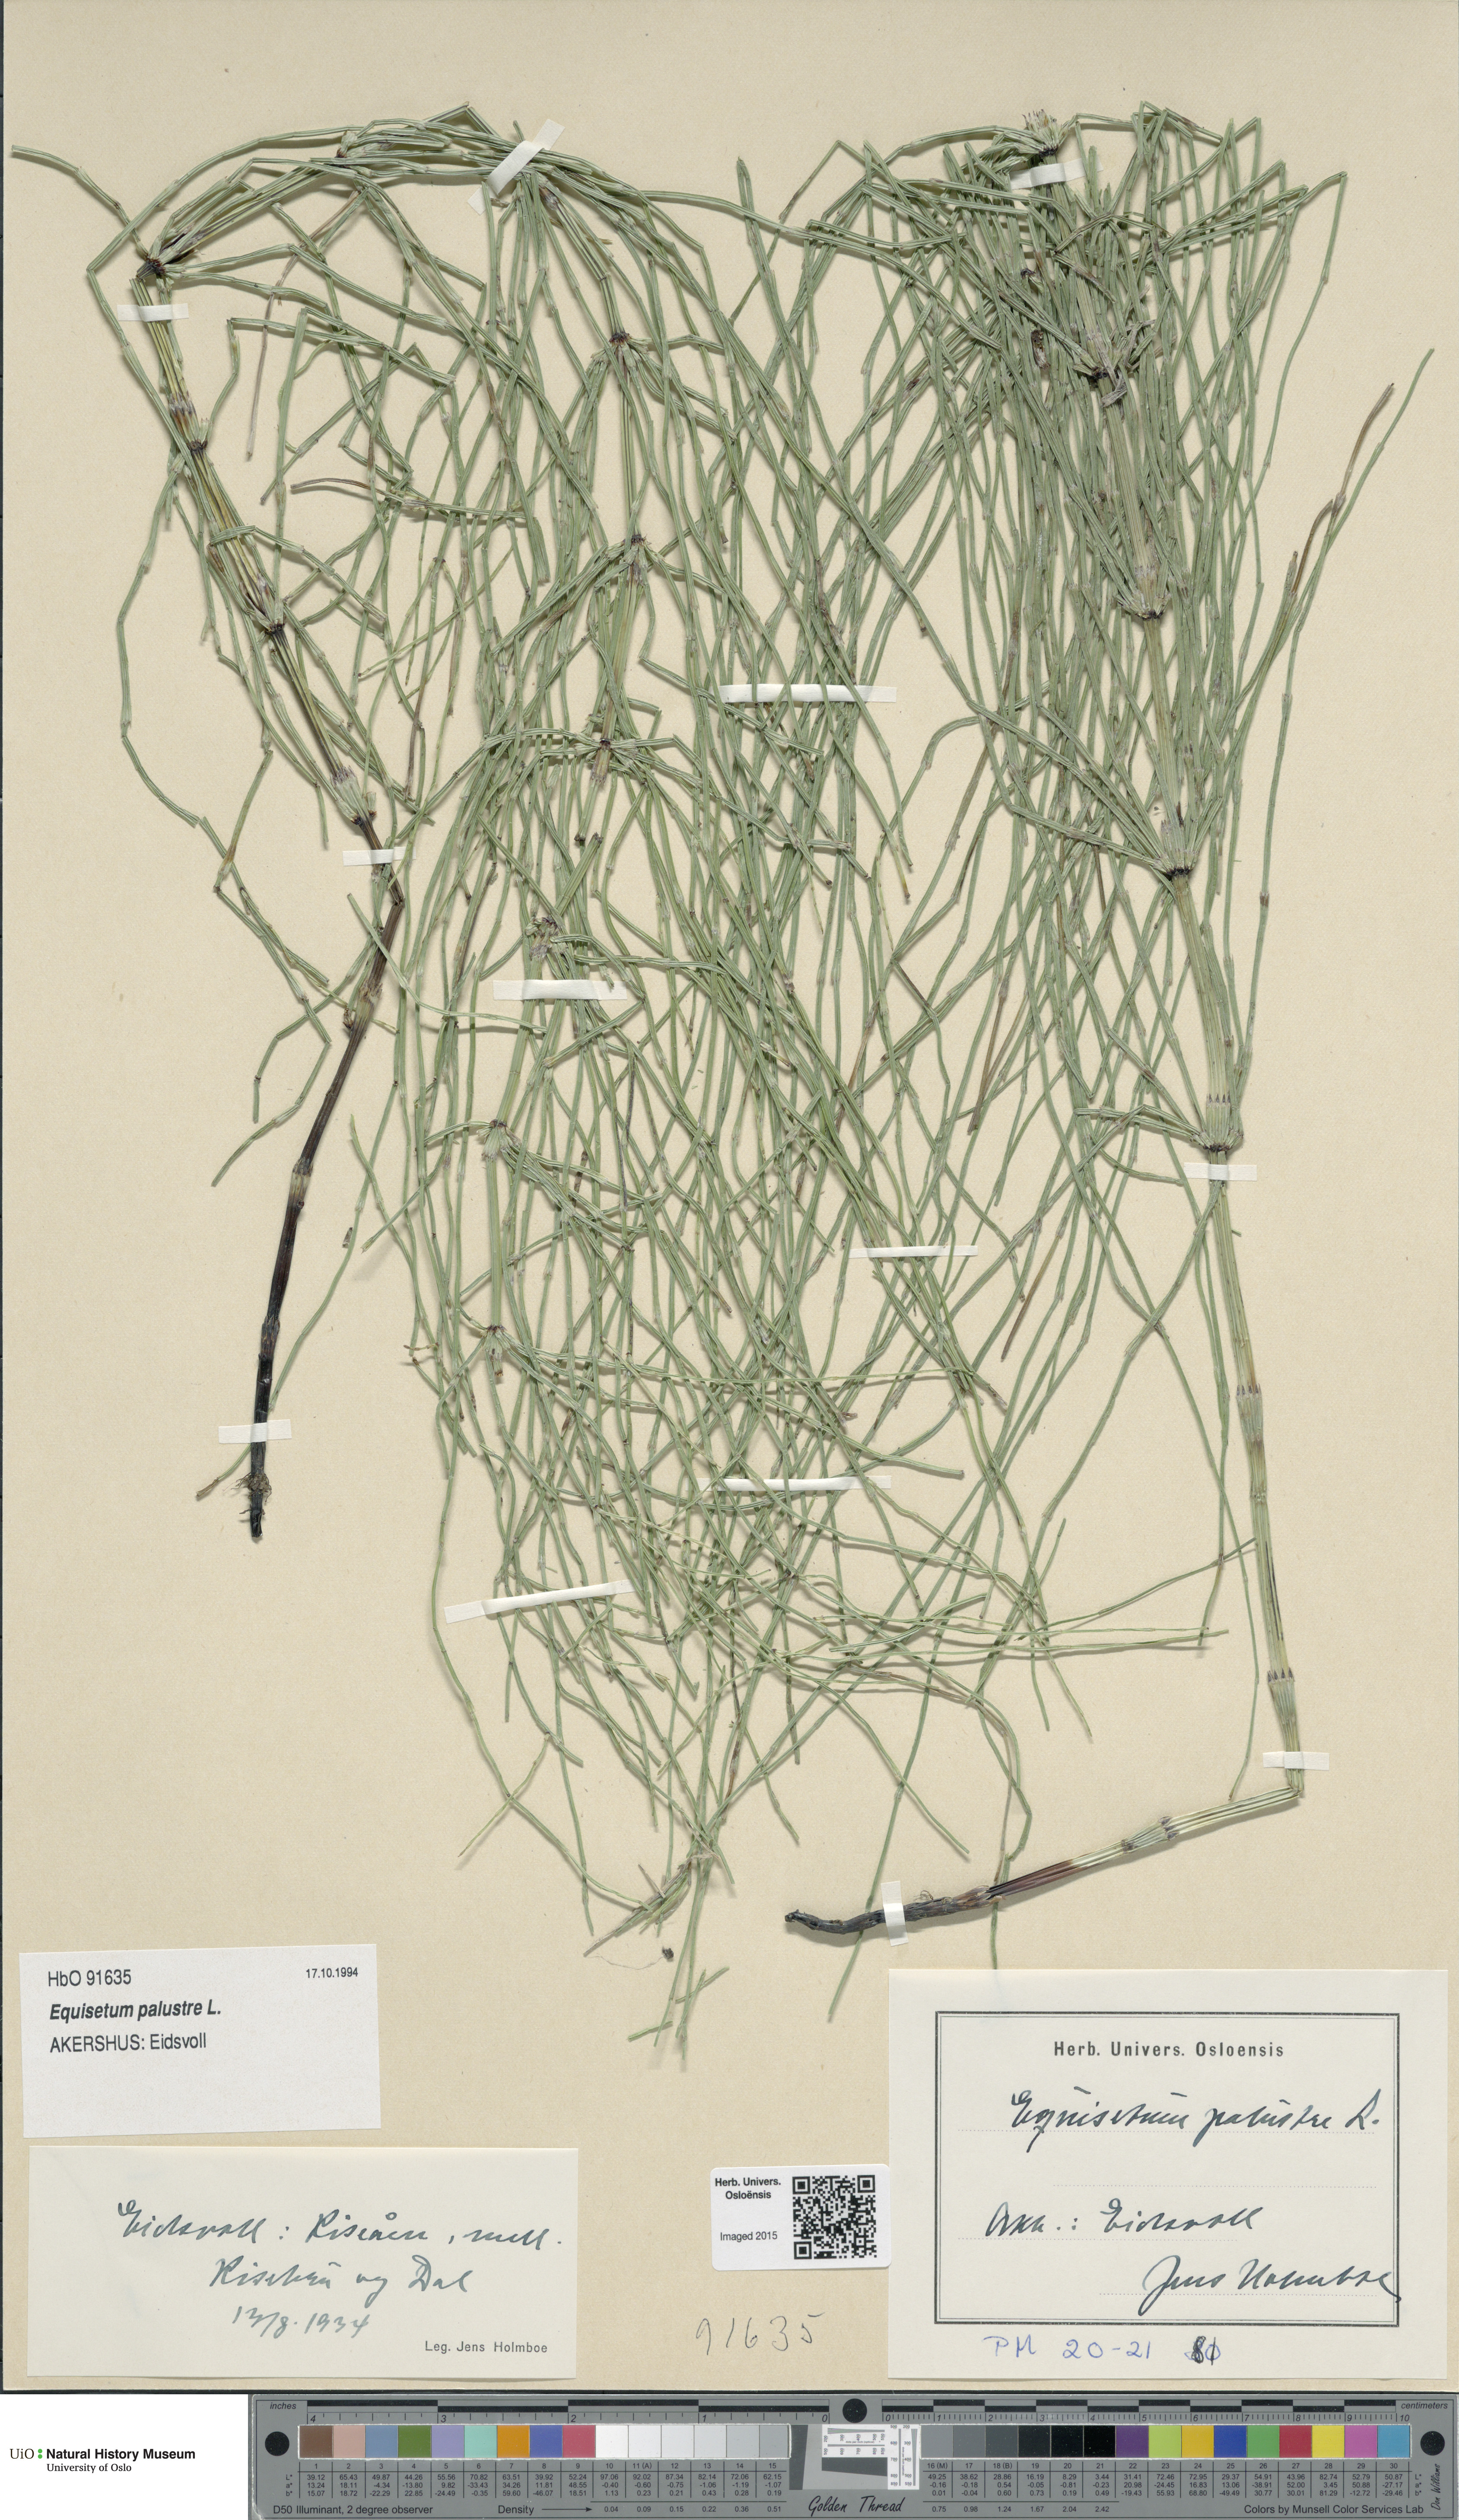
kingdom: Plantae
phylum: Tracheophyta
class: Polypodiopsida
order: Equisetales
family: Equisetaceae
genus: Equisetum
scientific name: Equisetum palustre
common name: Marsh horsetail
